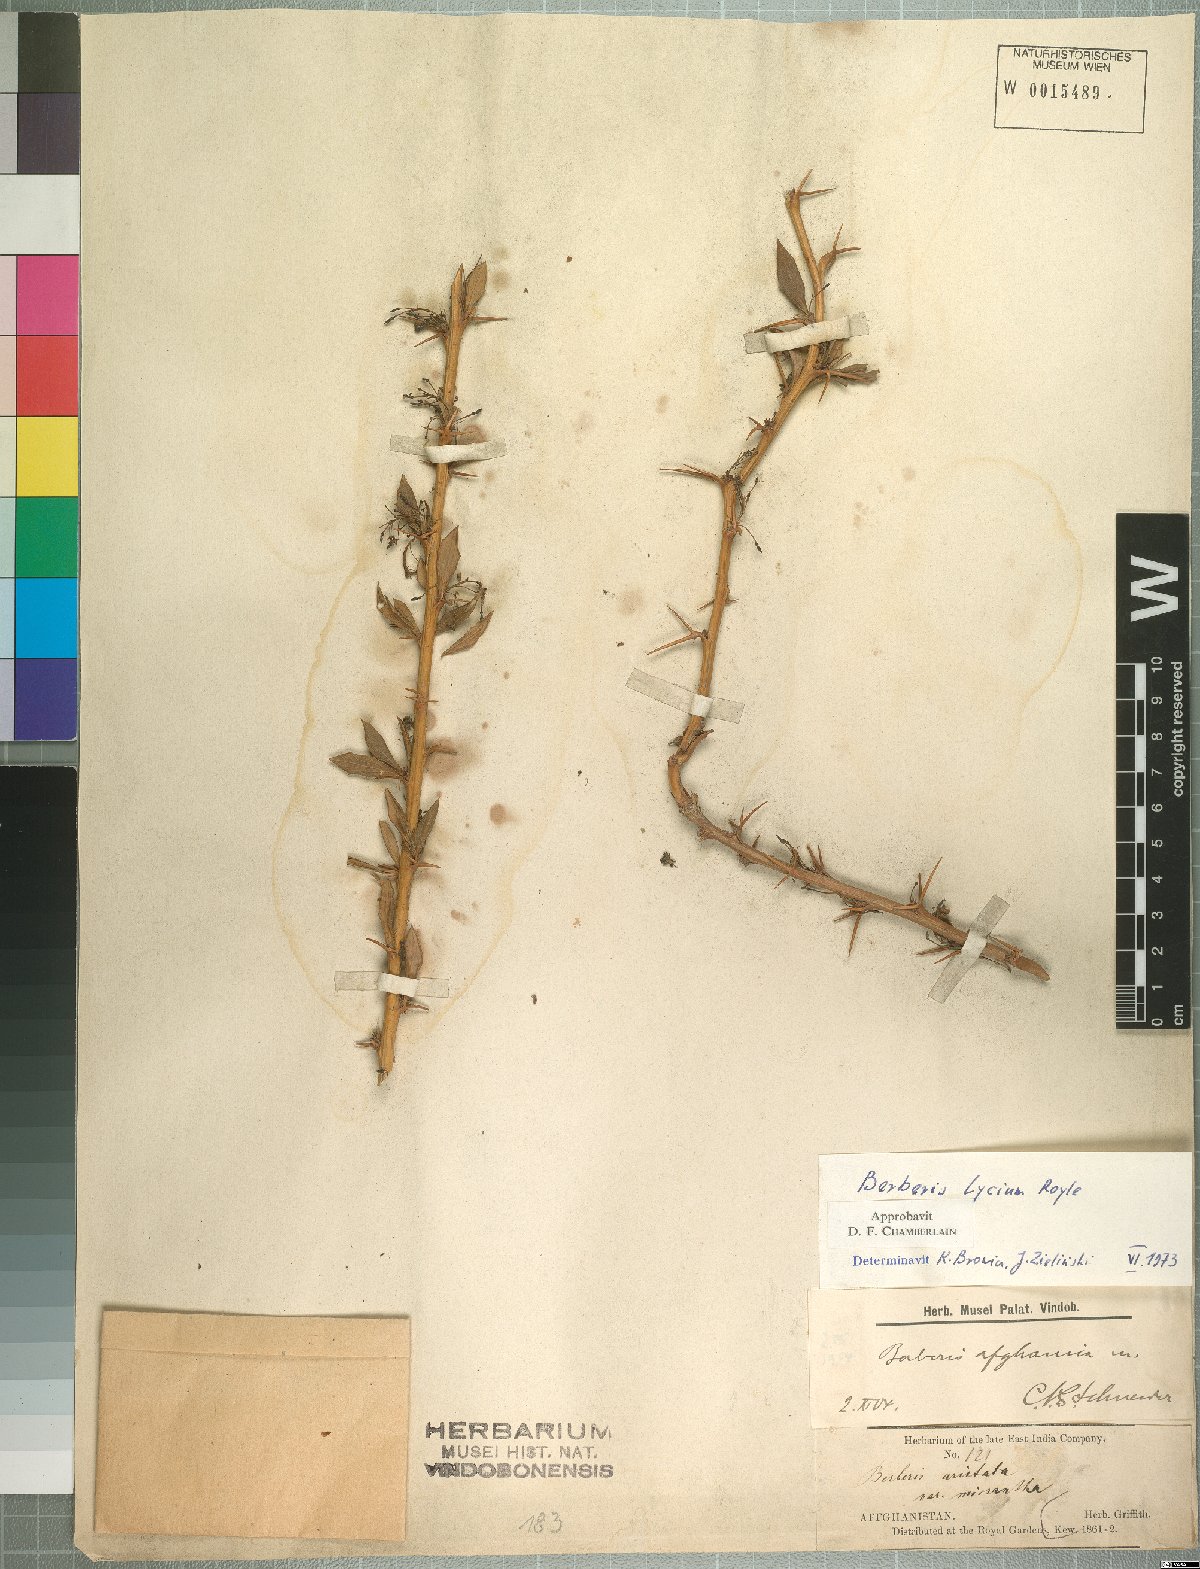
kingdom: Plantae
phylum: Tracheophyta
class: Magnoliopsida
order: Ranunculales
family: Berberidaceae
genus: Berberis
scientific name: Berberis lycium
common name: Boxthorn barberry
